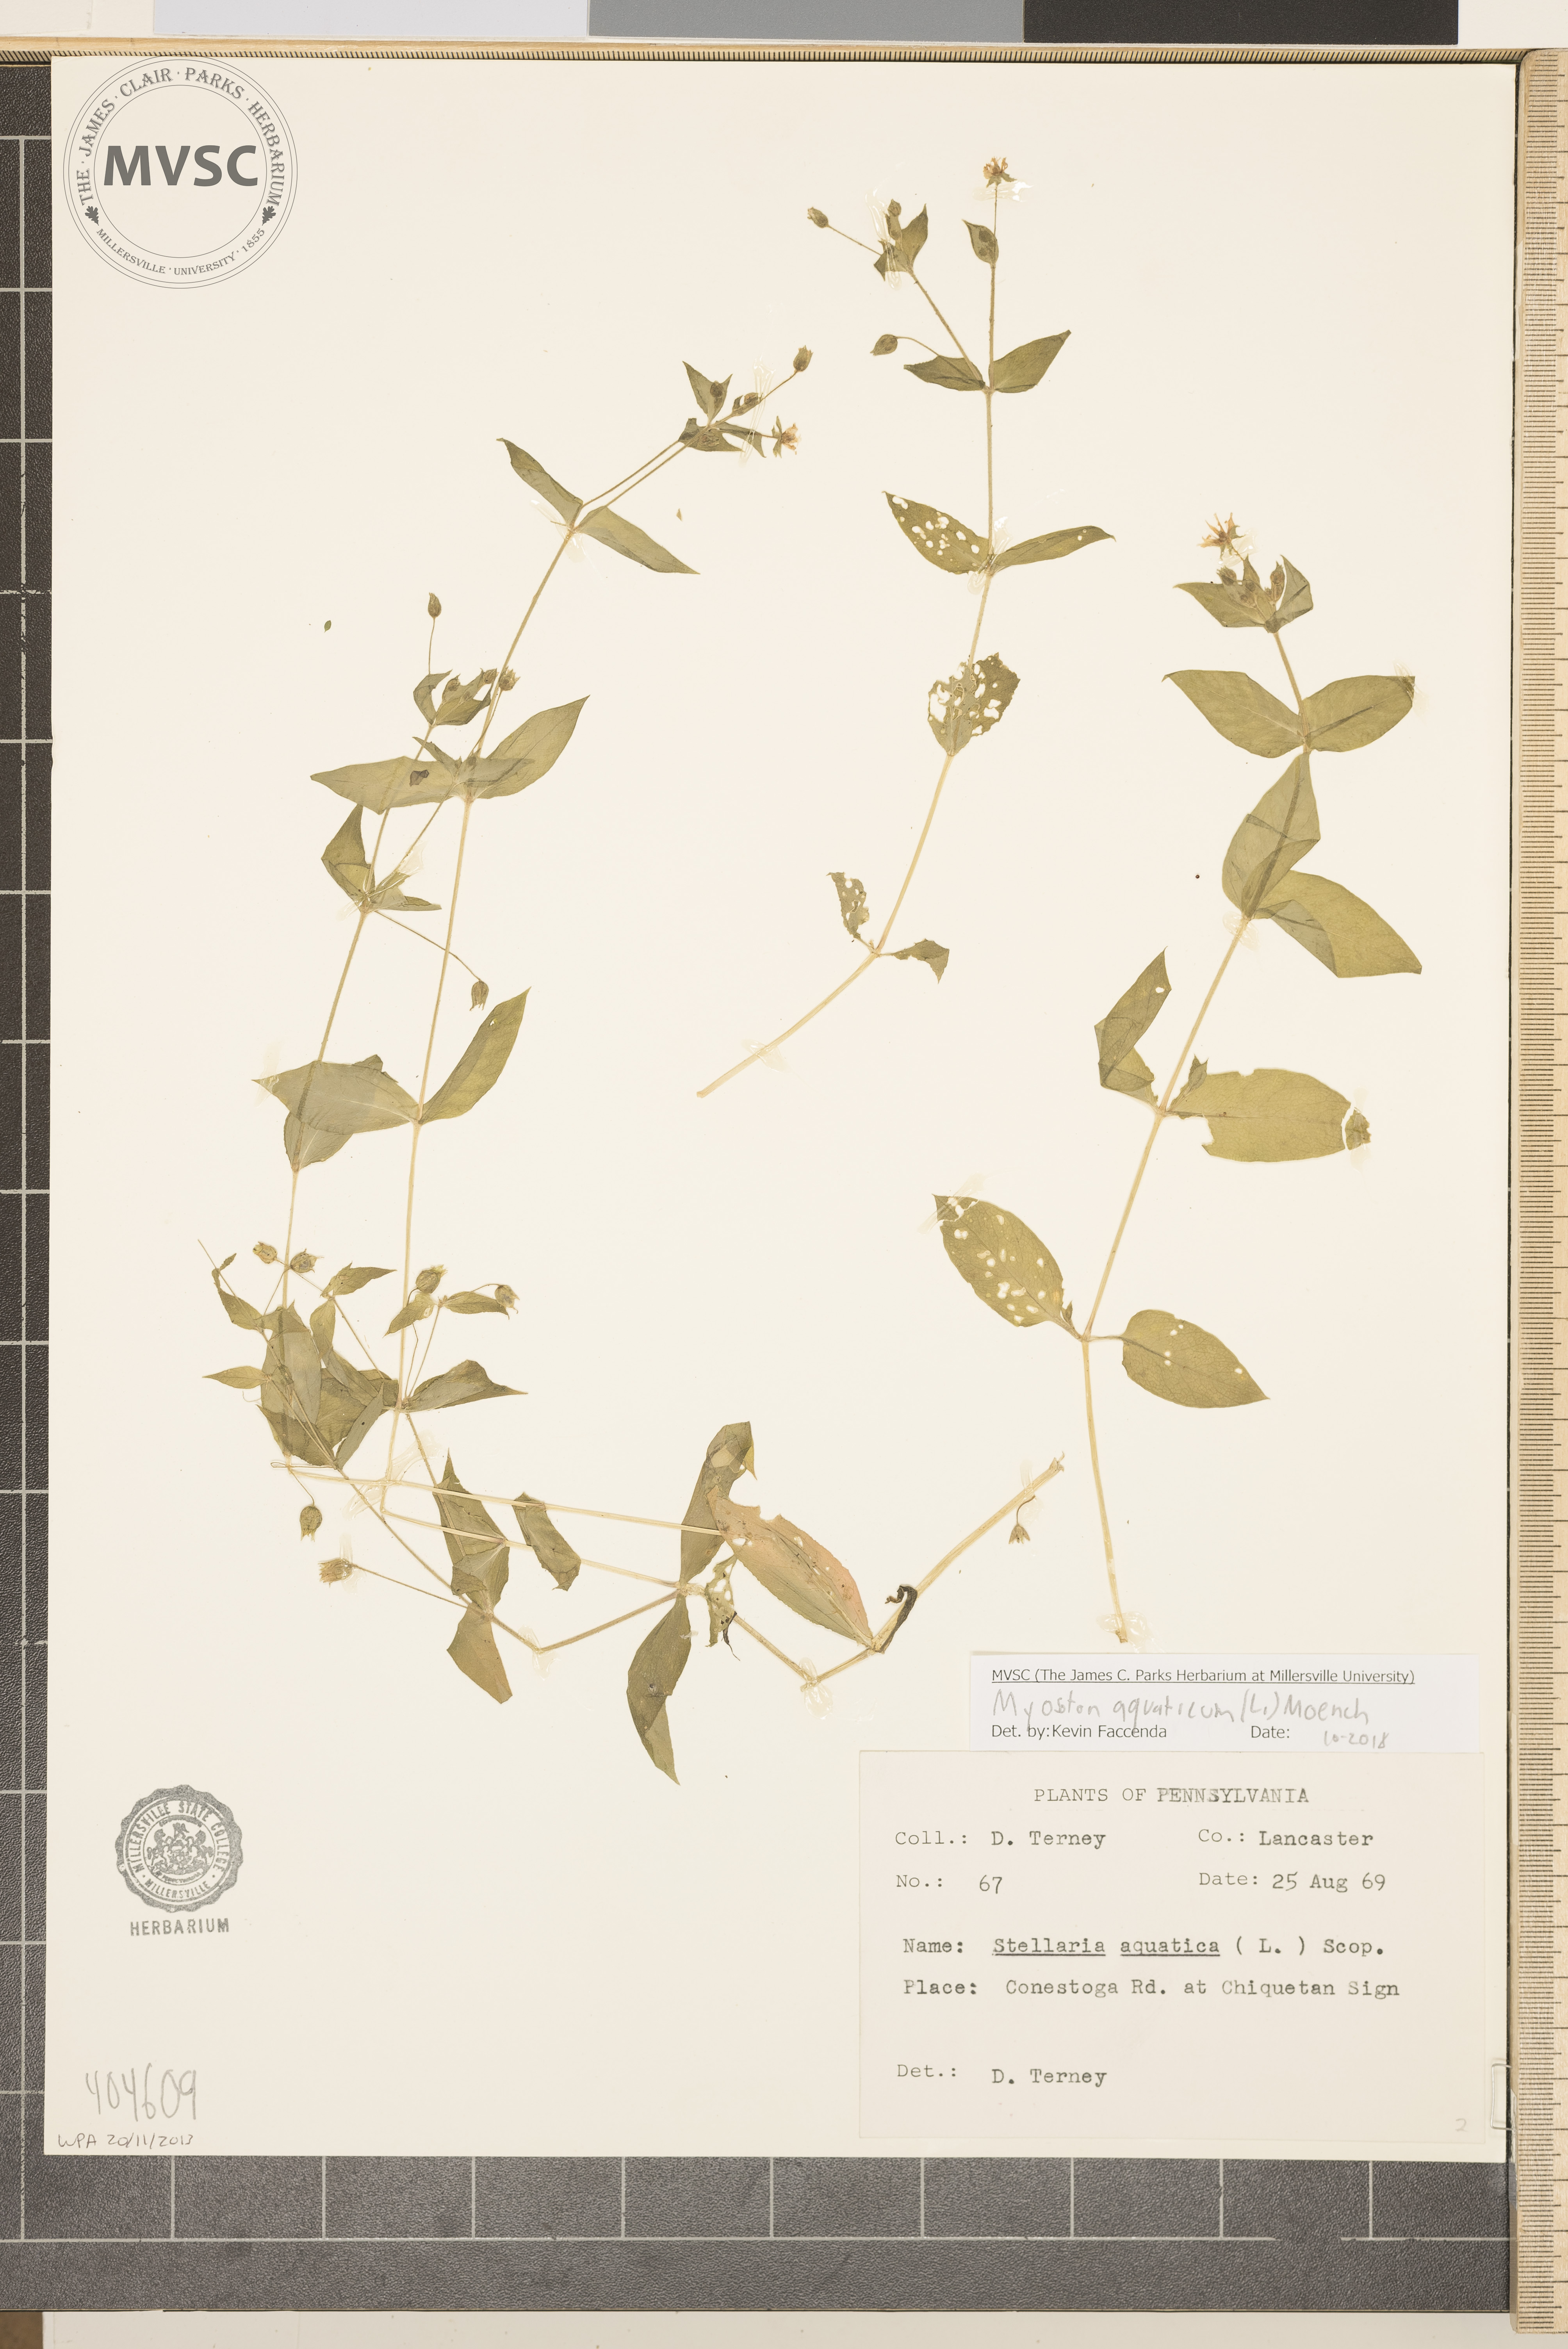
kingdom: Plantae
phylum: Tracheophyta
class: Magnoliopsida
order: Caryophyllales
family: Caryophyllaceae
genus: Stellaria
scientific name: Stellaria aquatica
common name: Water chickweed
